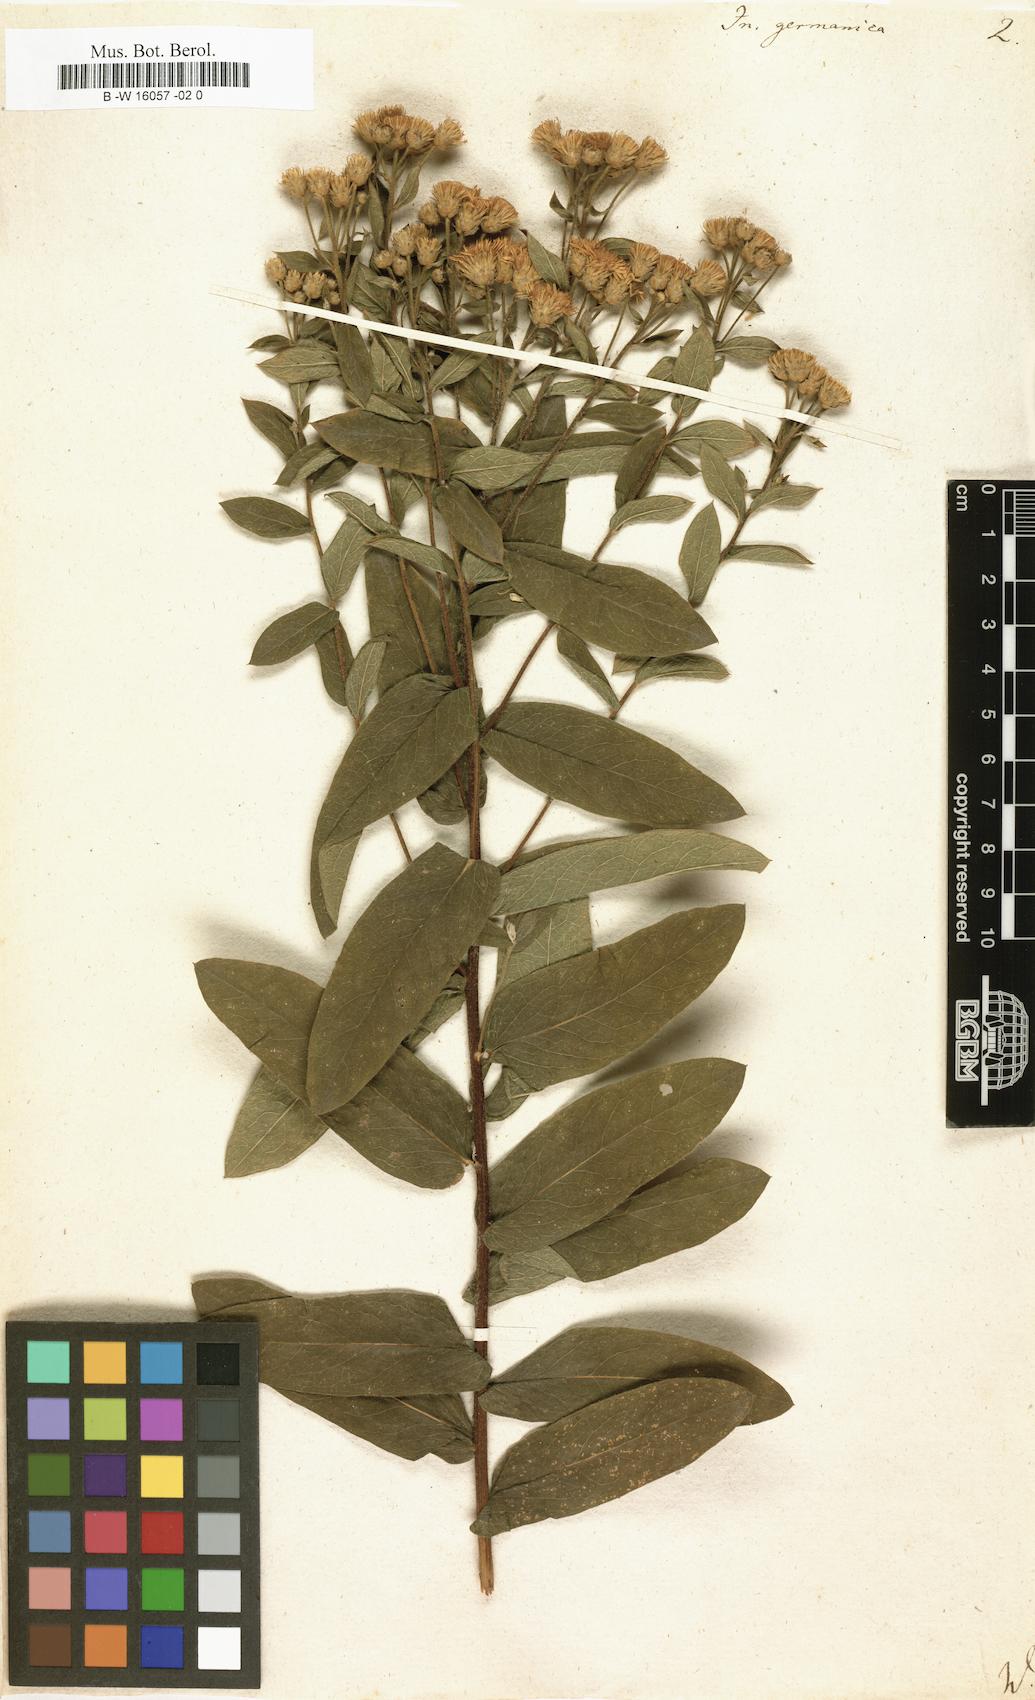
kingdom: Plantae
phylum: Tracheophyta
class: Magnoliopsida
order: Asterales
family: Asteraceae
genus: Pentanema
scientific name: Pentanema germanicum
